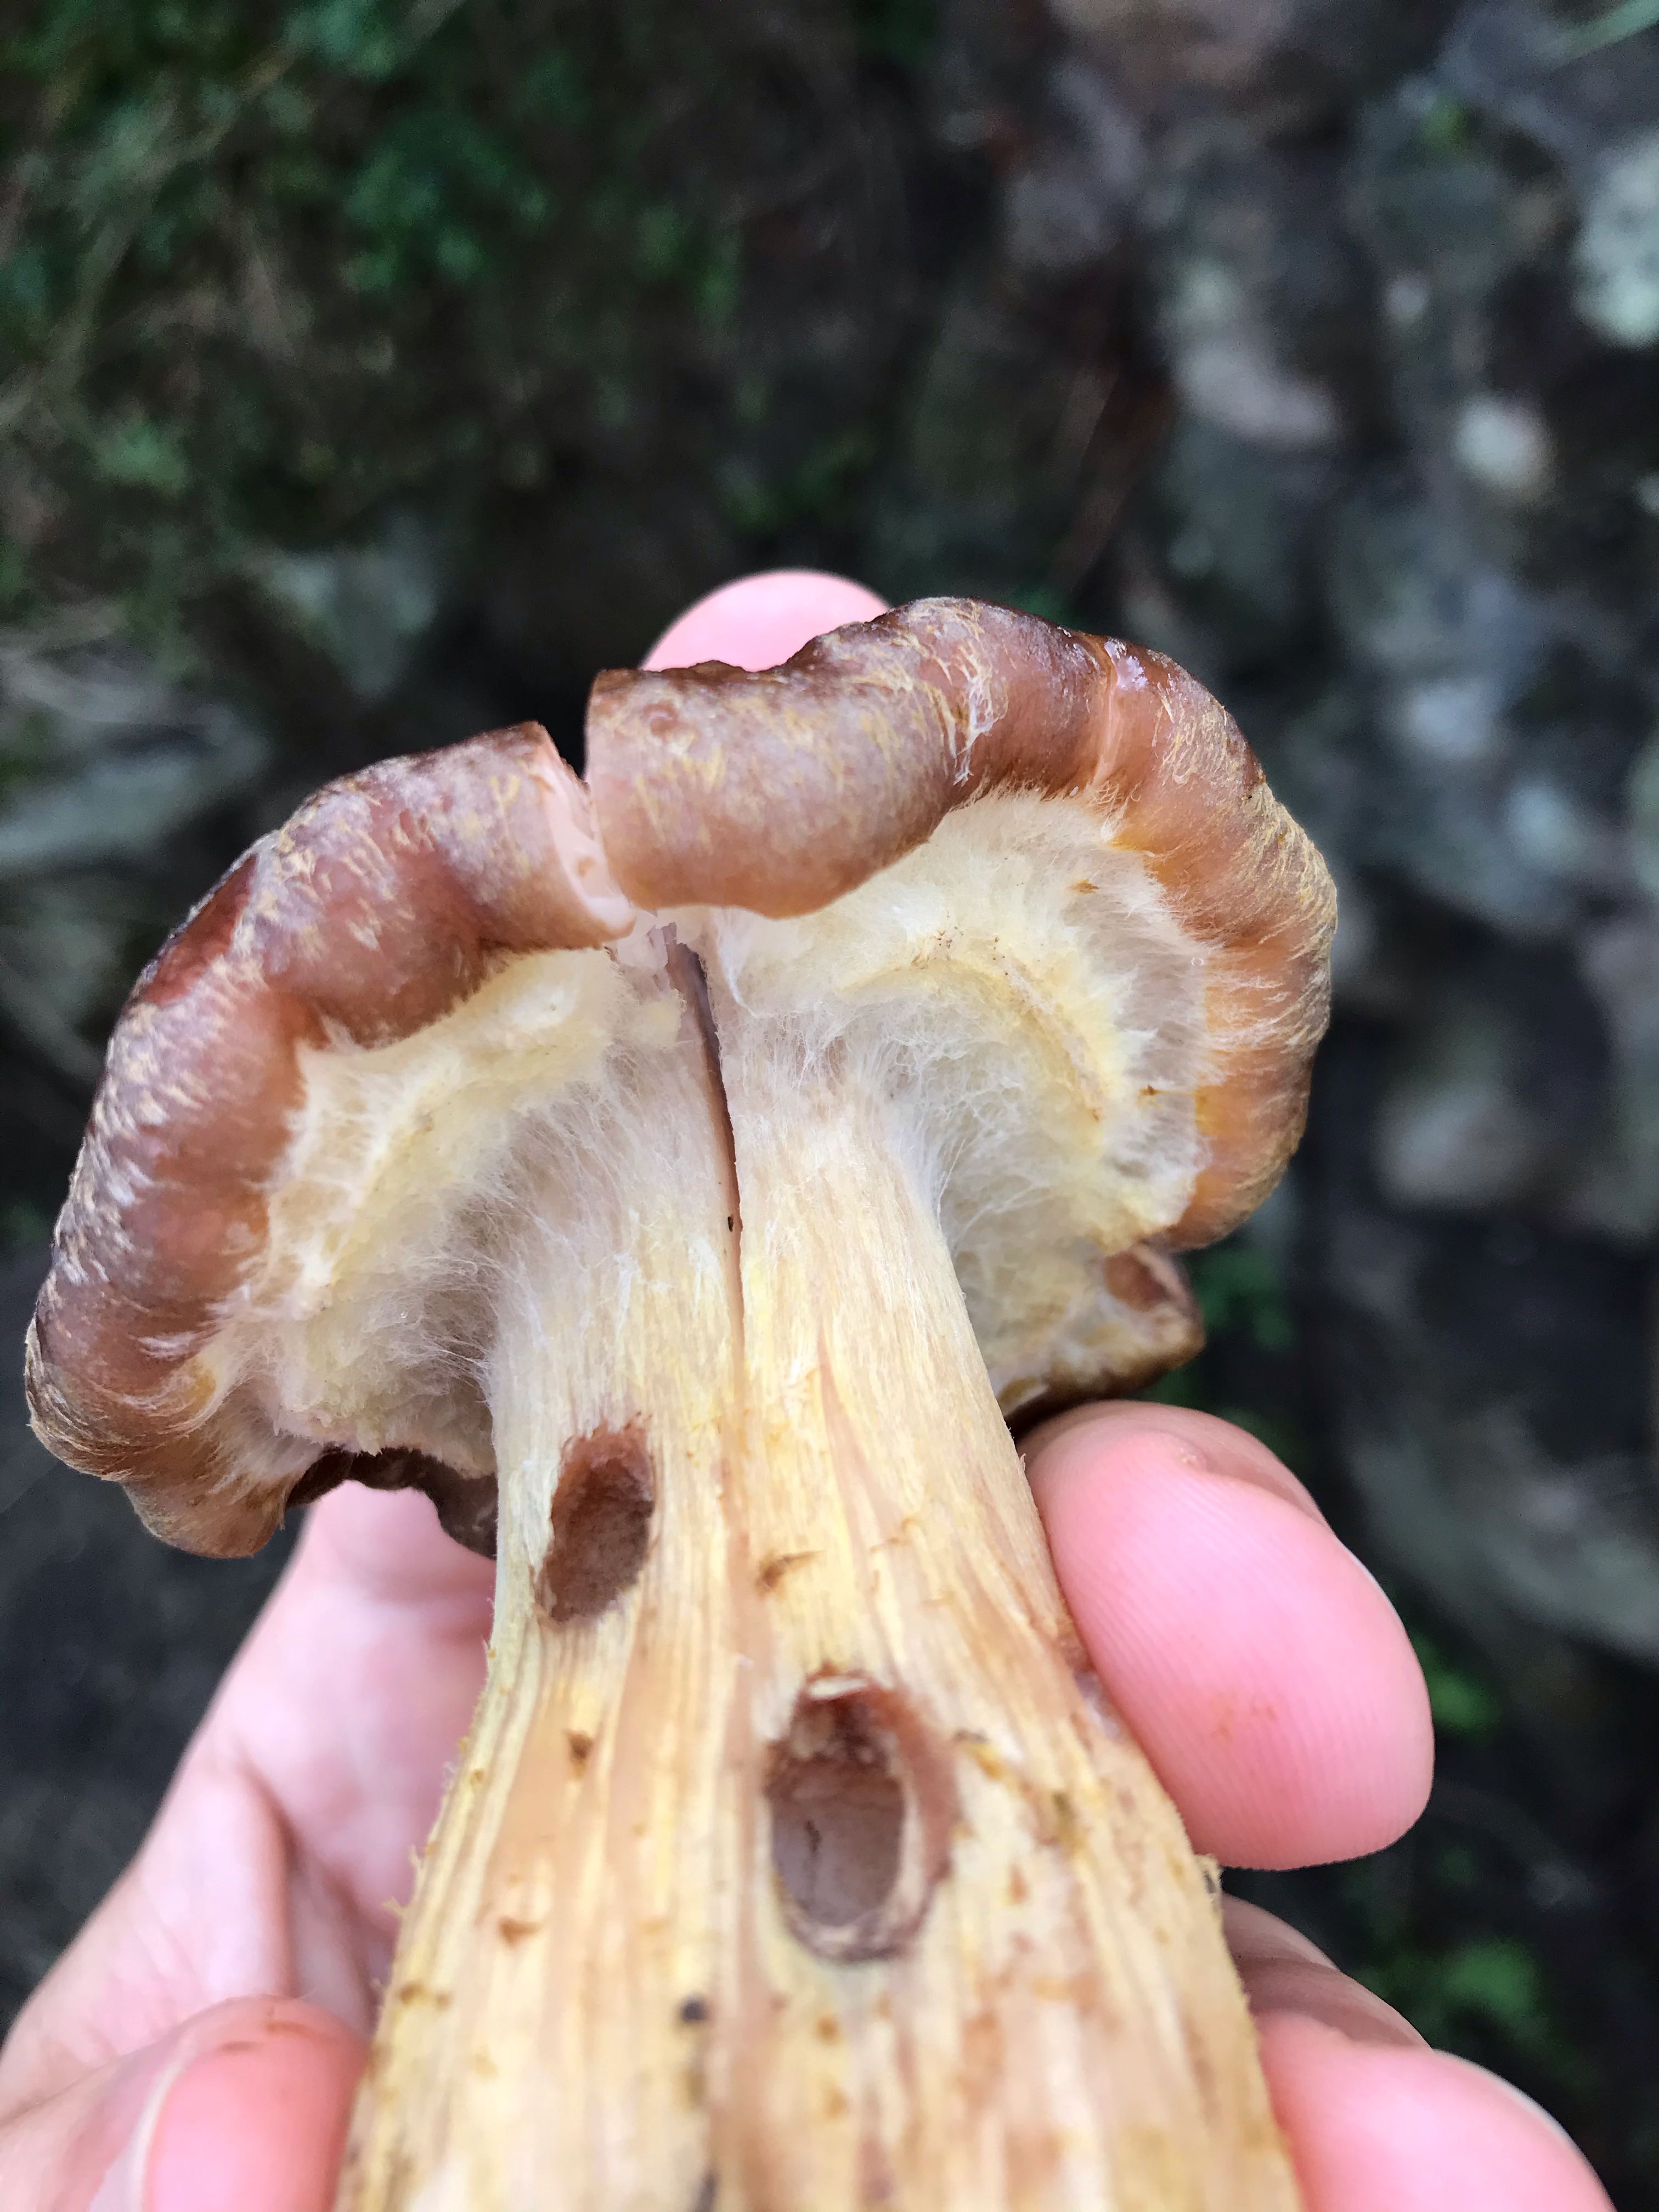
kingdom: Fungi
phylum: Basidiomycota
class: Agaricomycetes
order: Agaricales
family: Physalacriaceae
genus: Armillaria
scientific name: Armillaria lutea
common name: køllestokket honningsvamp
